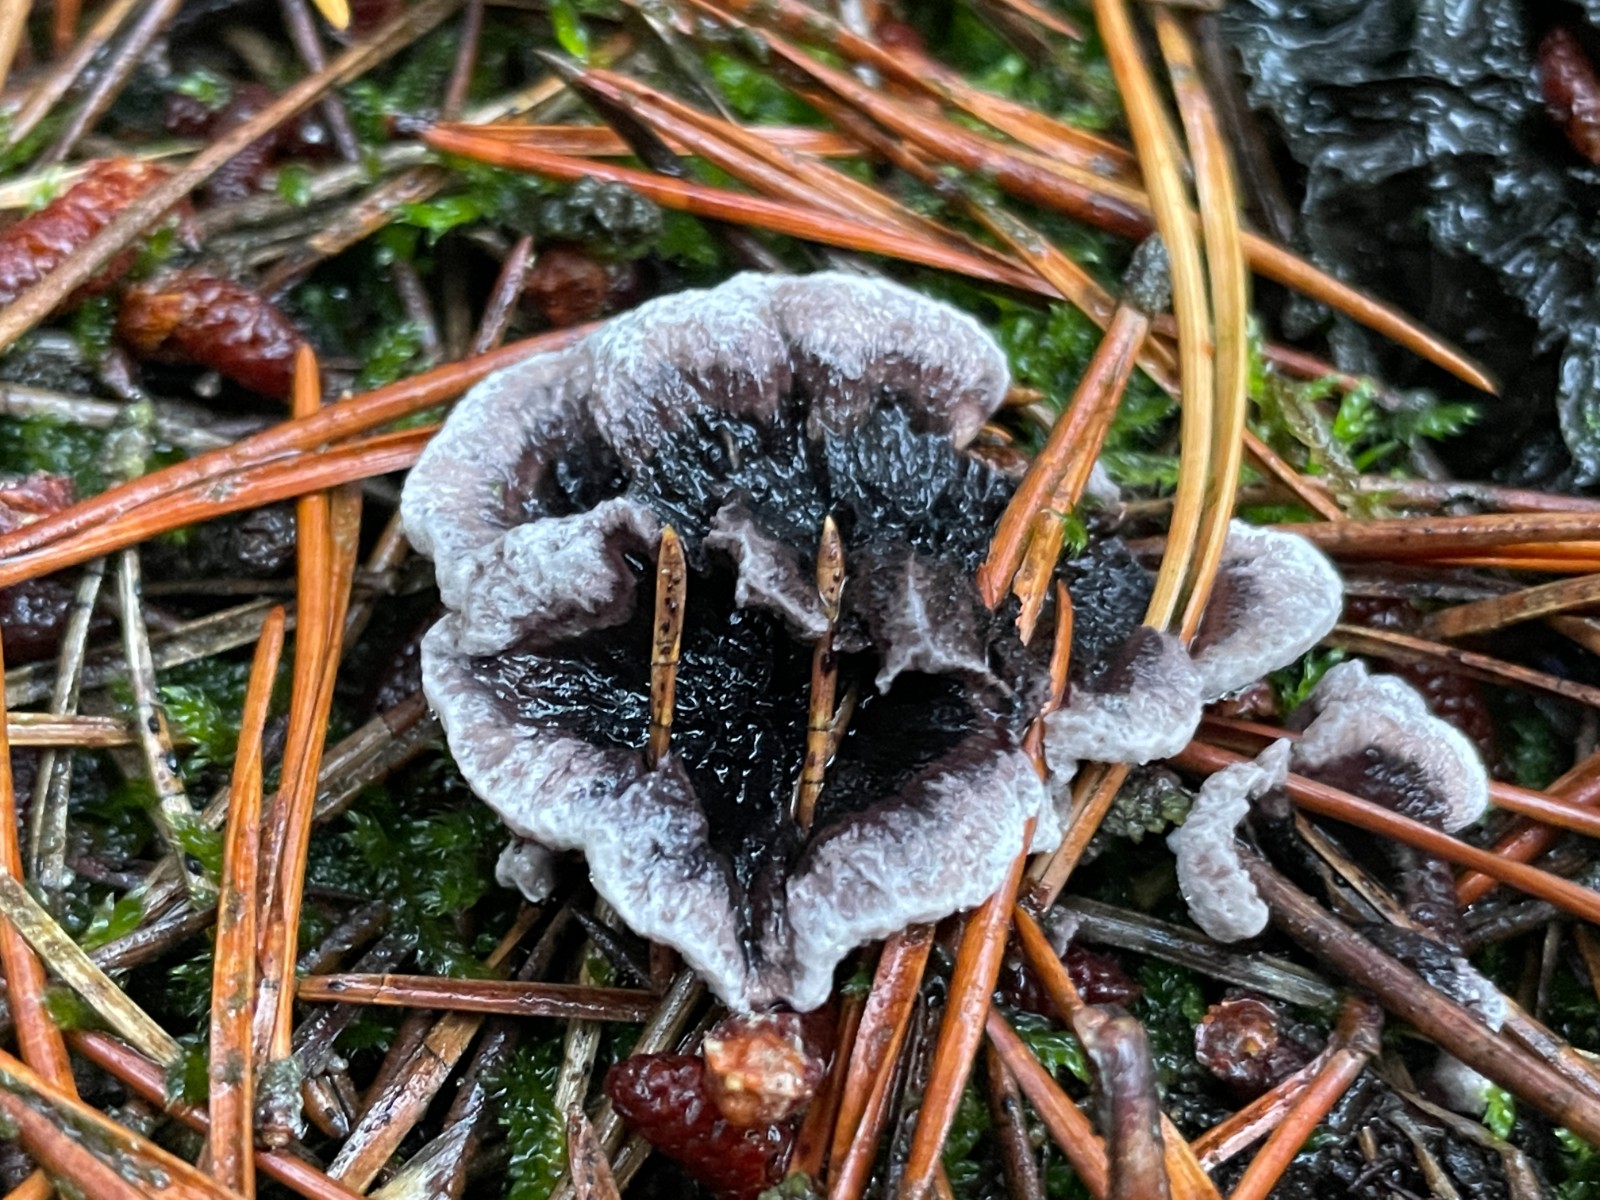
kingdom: Fungi
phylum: Basidiomycota
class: Agaricomycetes
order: Thelephorales
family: Thelephoraceae
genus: Phellodon
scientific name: Phellodon tomentosus
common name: vellugtende duftpigsvamp
